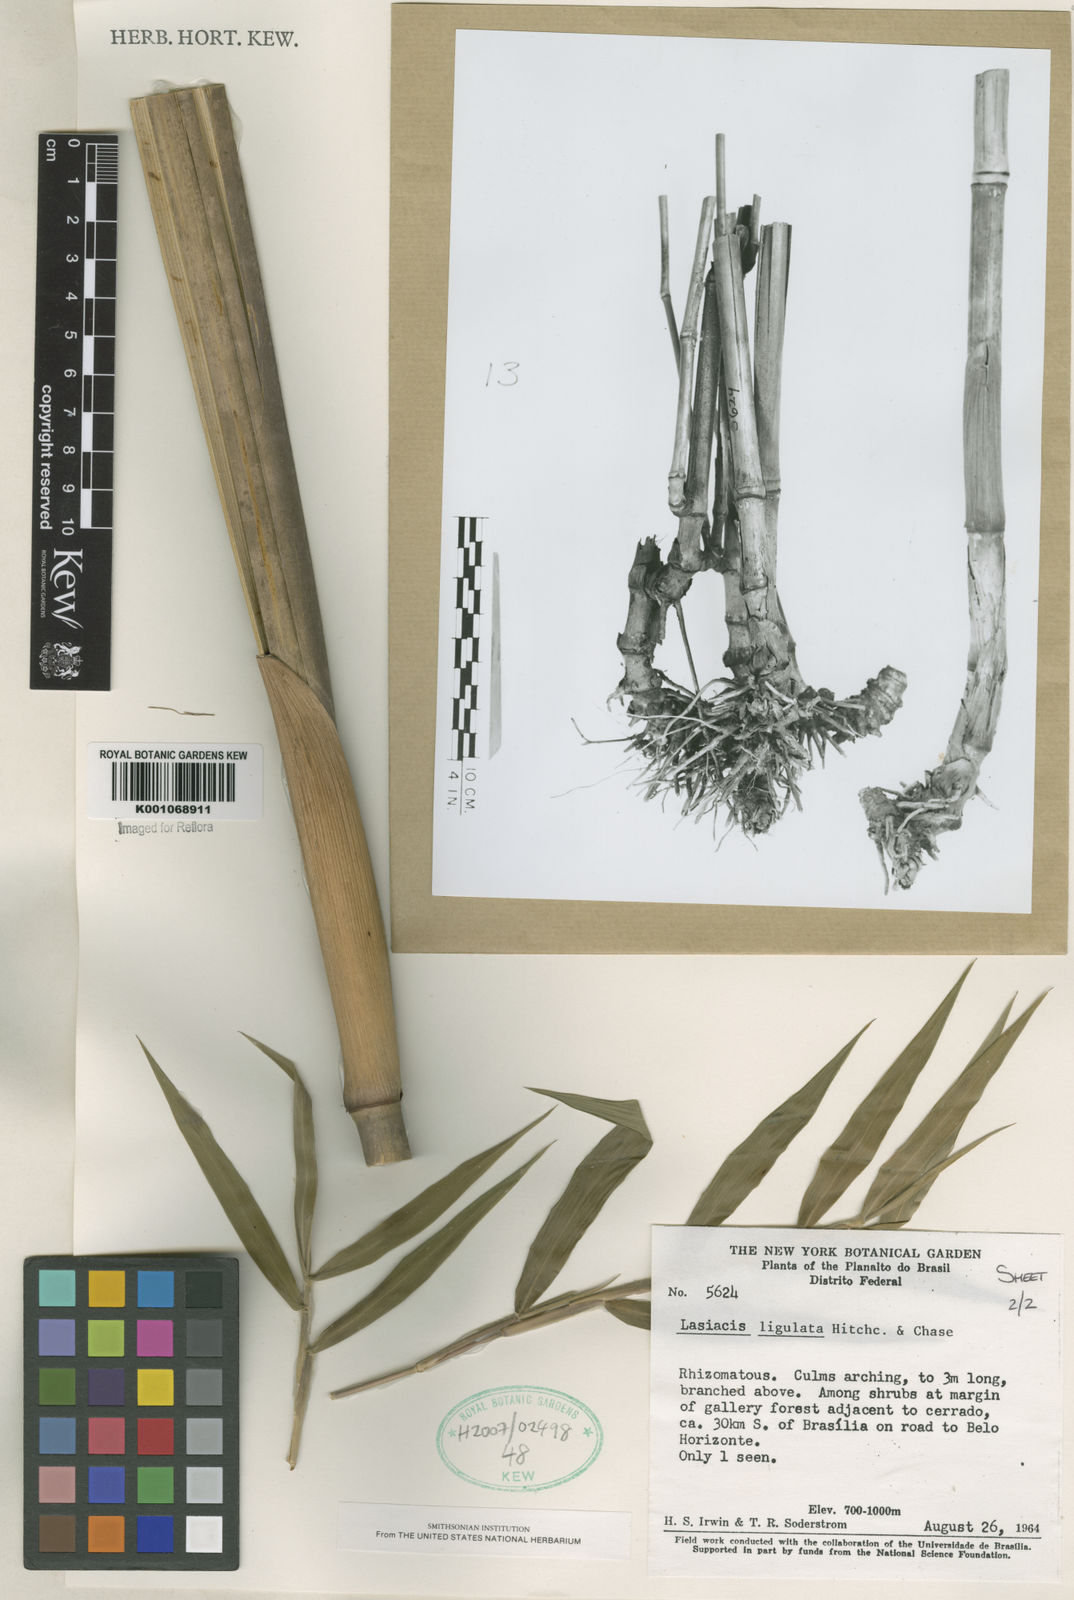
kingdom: Plantae
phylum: Tracheophyta
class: Liliopsida
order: Poales
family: Poaceae
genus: Lasiacis
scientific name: Lasiacis ligulata
